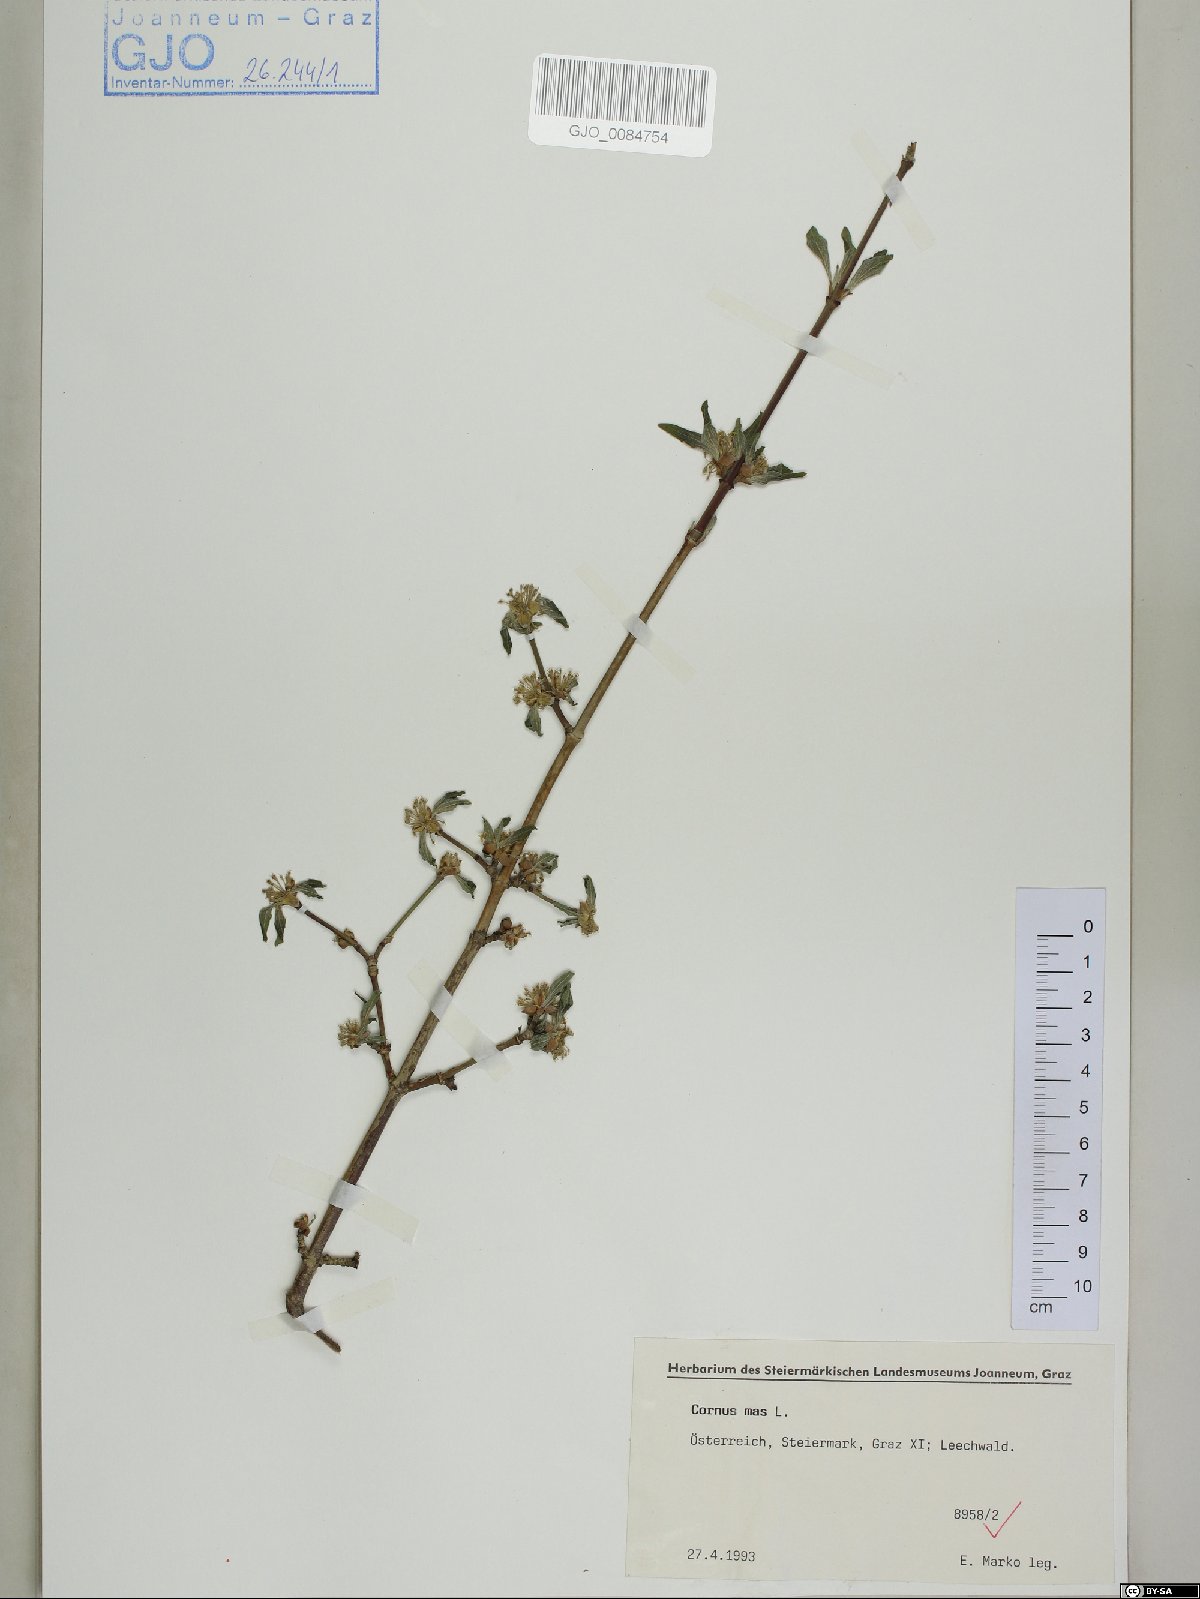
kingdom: Plantae
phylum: Tracheophyta
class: Magnoliopsida
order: Cornales
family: Cornaceae
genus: Cornus
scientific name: Cornus mas
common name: Cornelian-cherry
